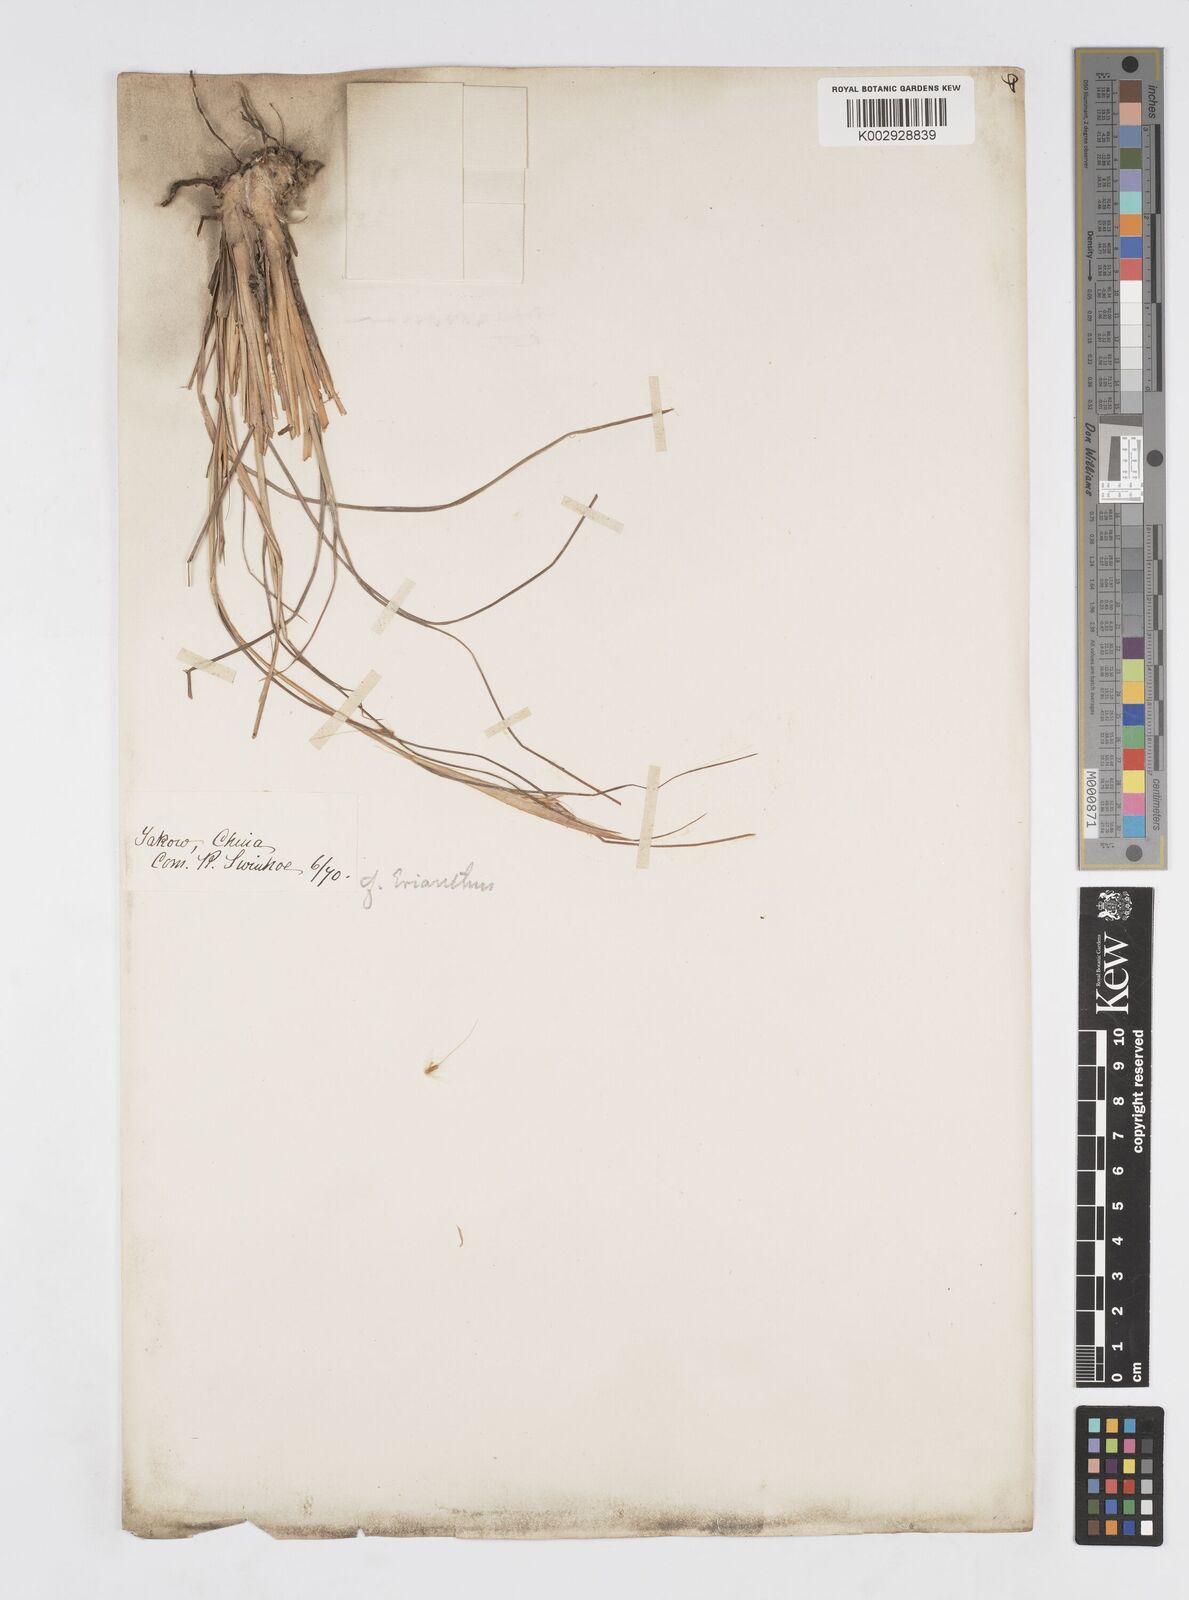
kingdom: Plantae
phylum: Tracheophyta
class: Liliopsida
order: Poales
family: Poaceae
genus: Saccharum
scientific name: Saccharum
